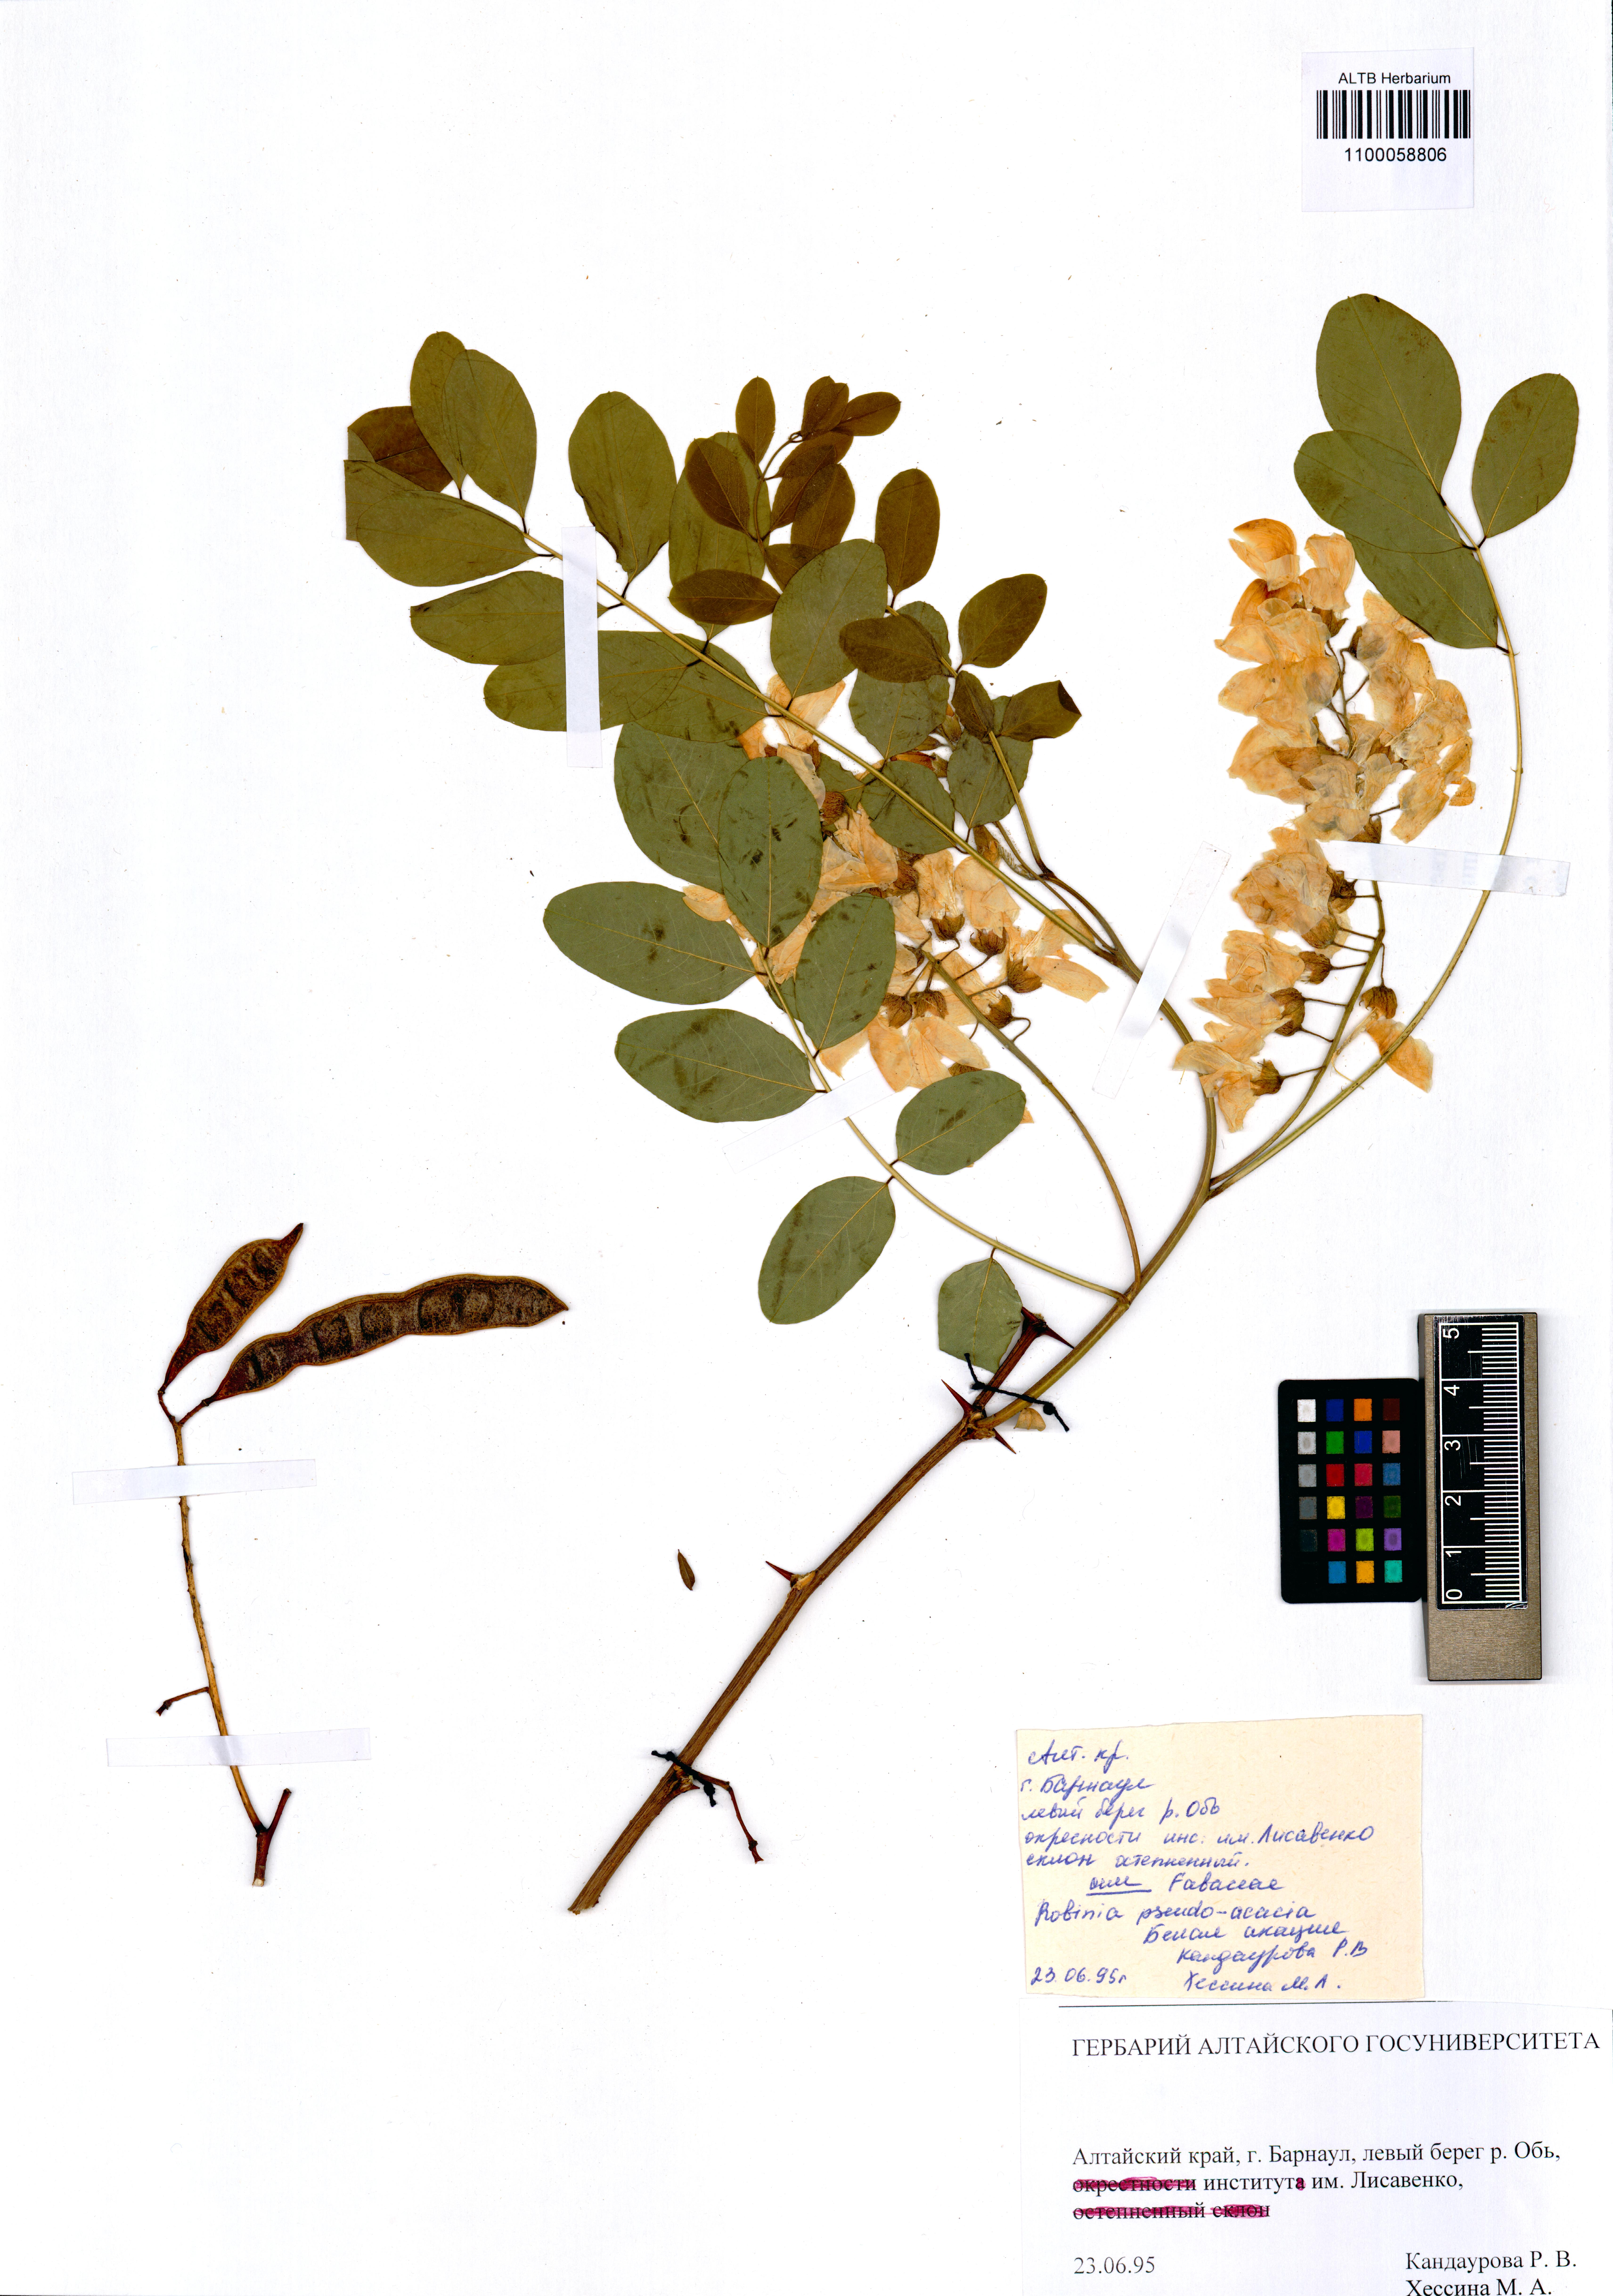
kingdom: Plantae
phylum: Tracheophyta
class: Magnoliopsida
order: Fabales
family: Fabaceae
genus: Robinia
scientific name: Robinia pseudoacacia
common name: Black locust
